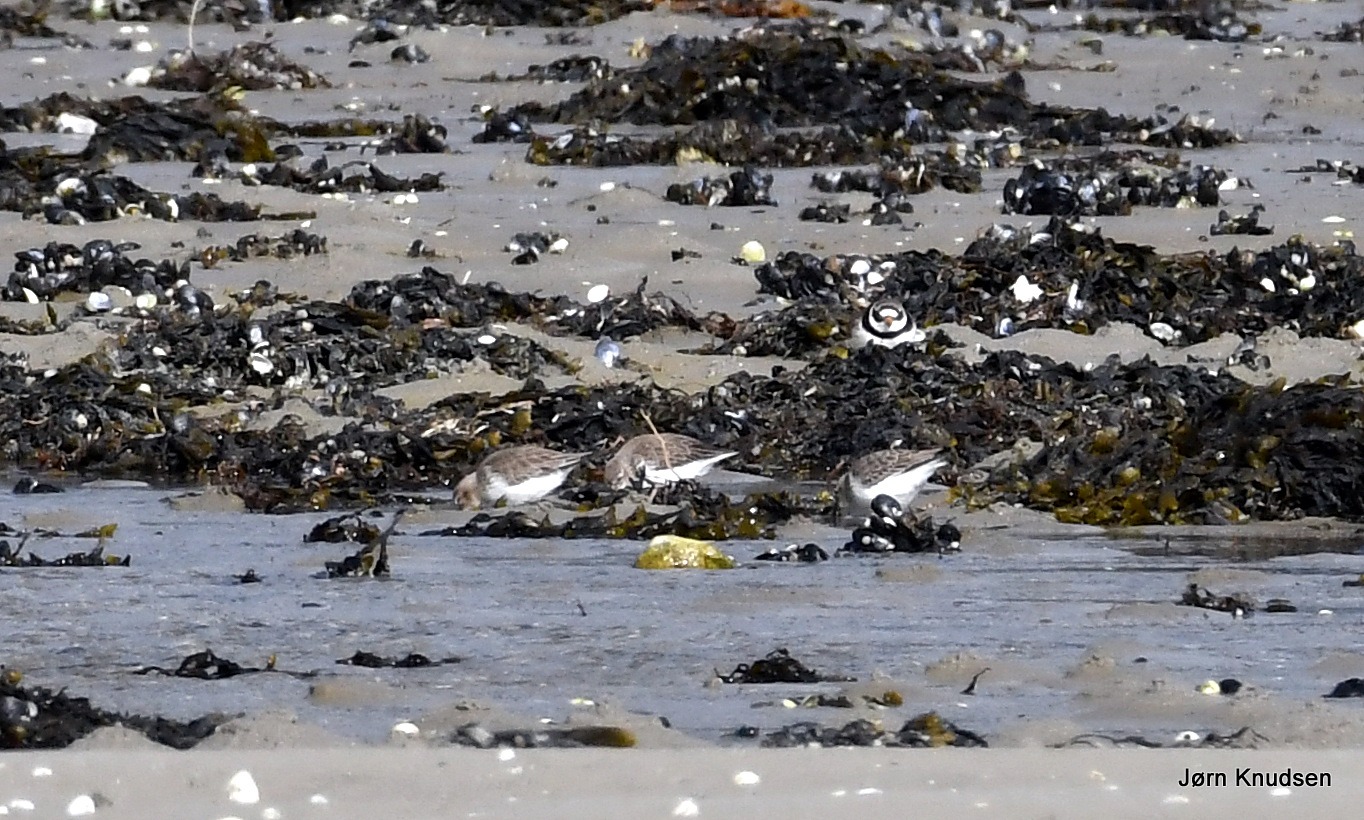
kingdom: Animalia
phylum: Chordata
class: Aves
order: Charadriiformes
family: Scolopacidae
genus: Calidris
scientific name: Calidris alpina
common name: Almindelig ryle
